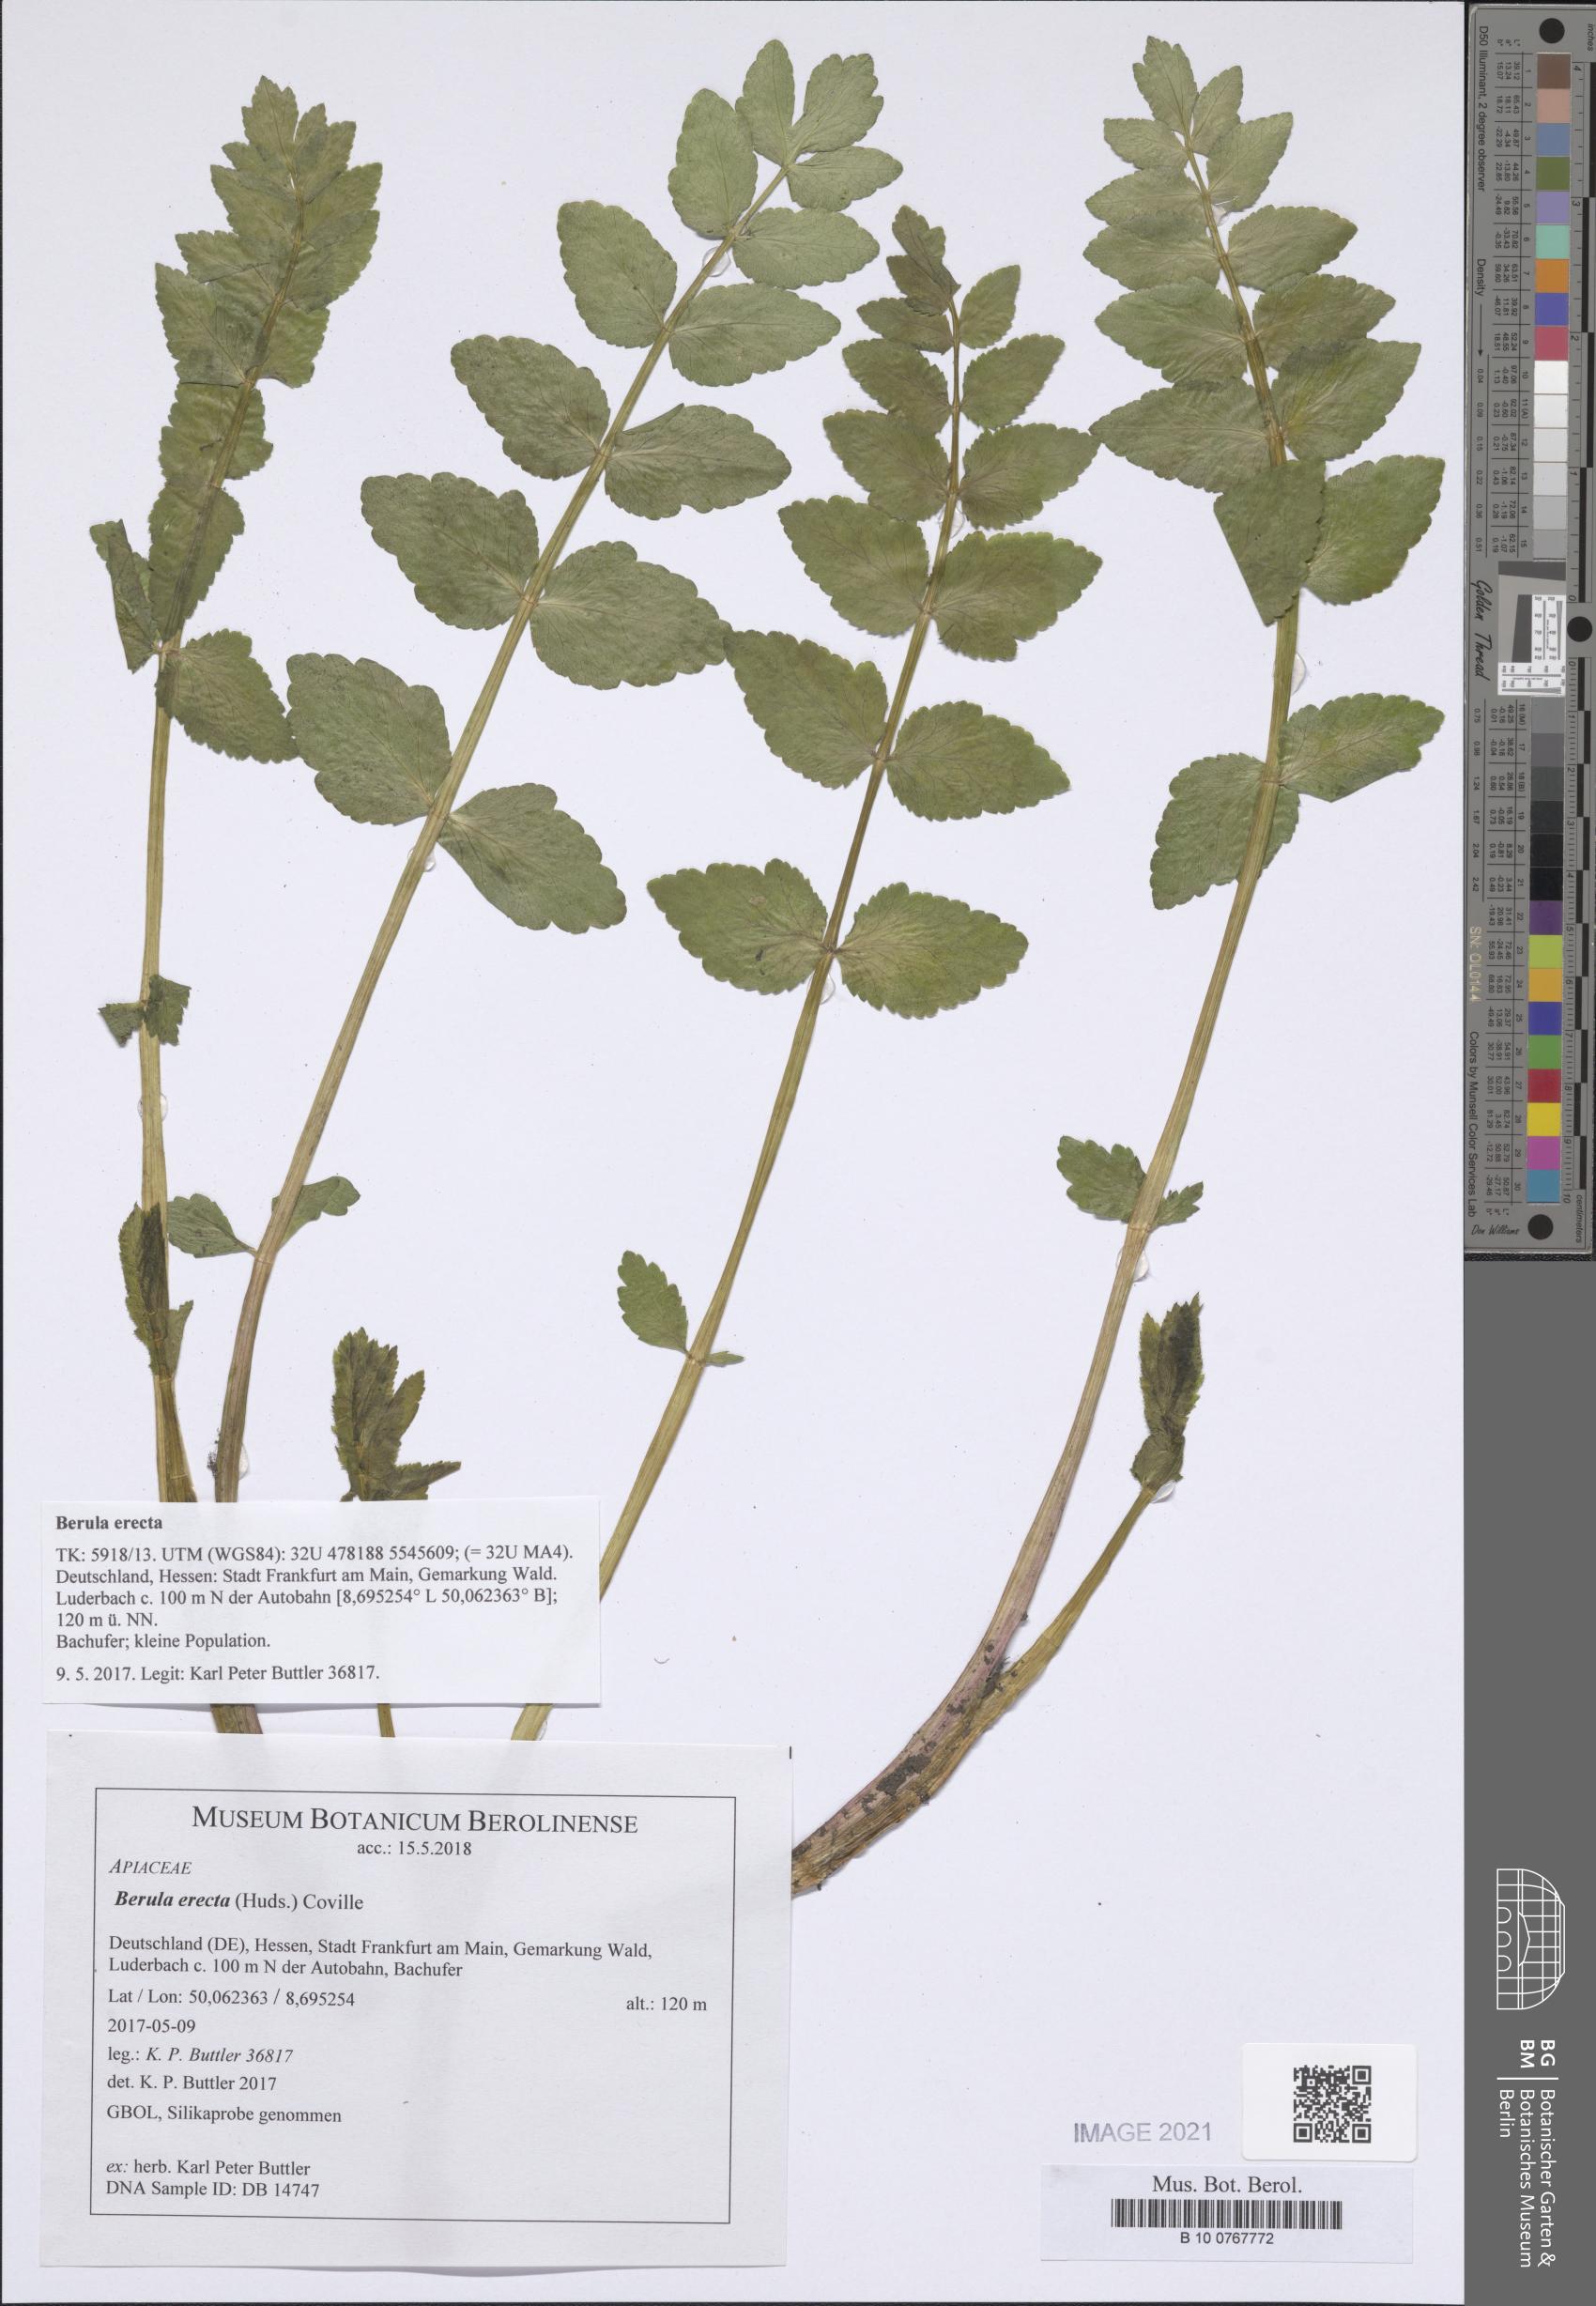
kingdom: Plantae
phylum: Tracheophyta
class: Magnoliopsida
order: Apiales
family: Apiaceae
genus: Berula
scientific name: Berula erecta
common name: Lesser water-parsnip
